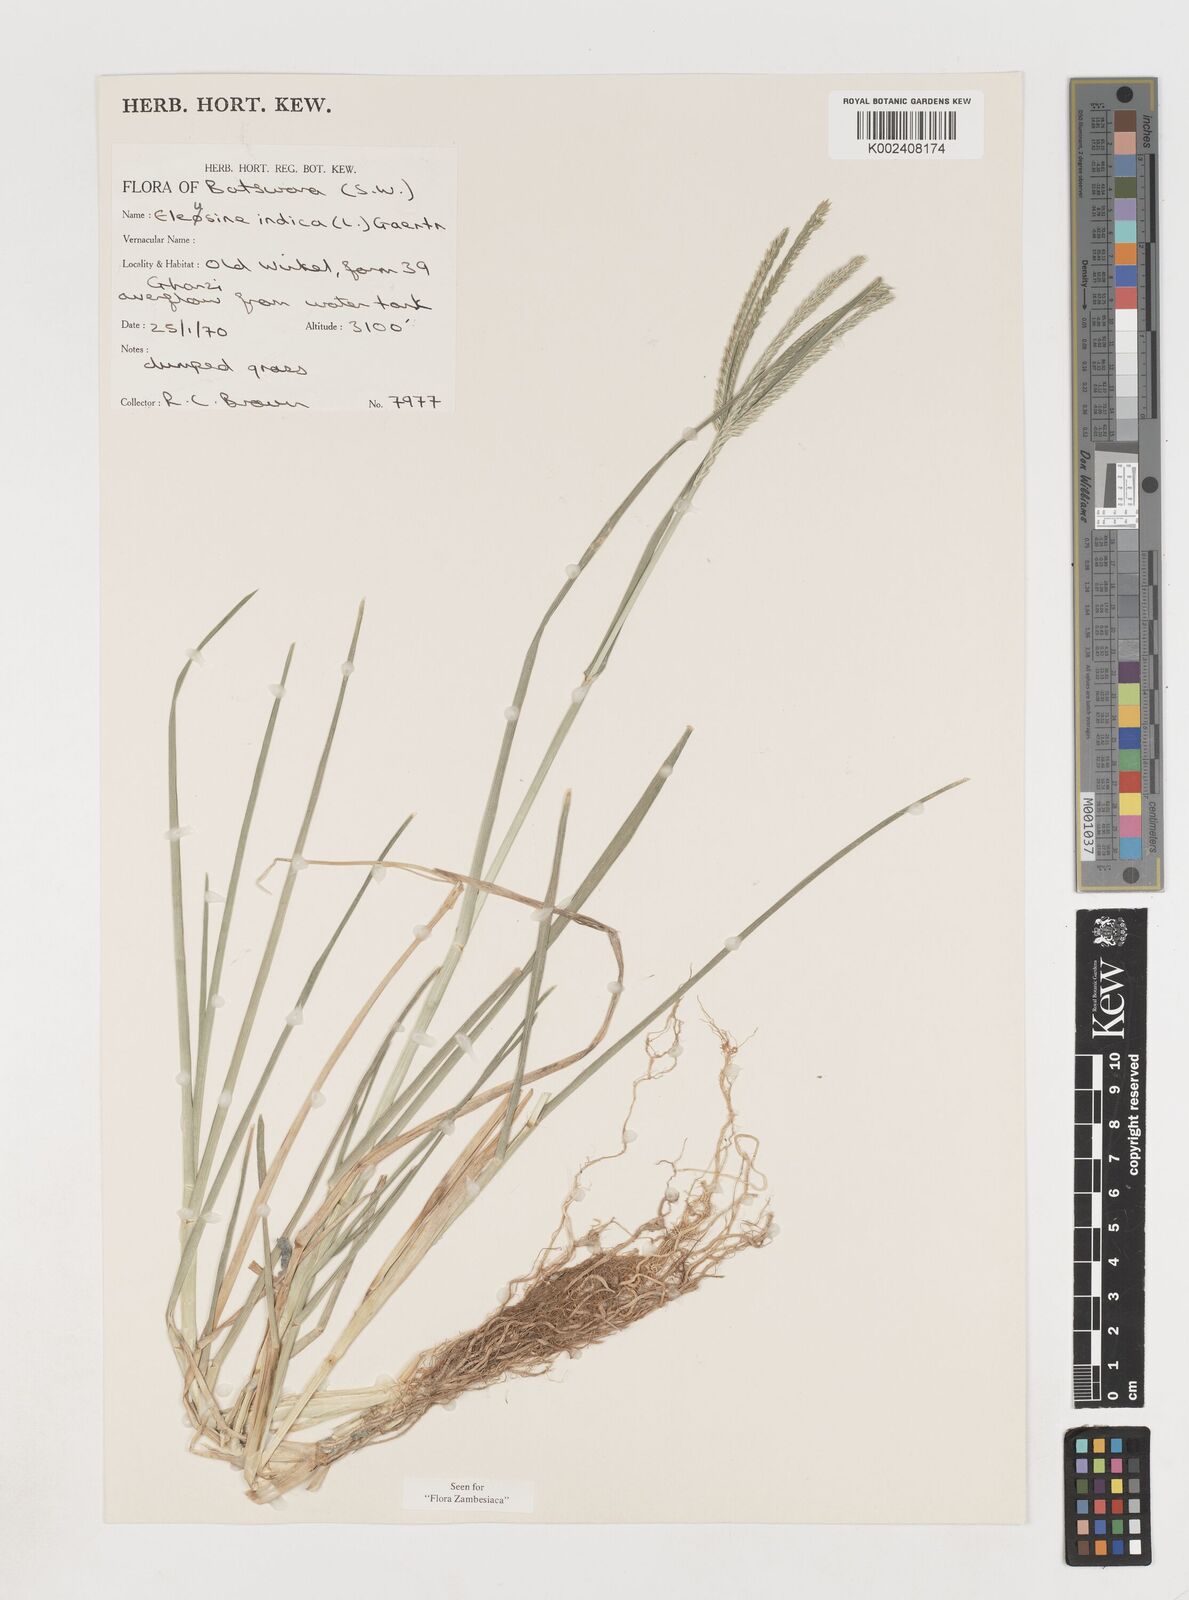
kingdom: Plantae
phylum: Tracheophyta
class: Liliopsida
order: Poales
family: Poaceae
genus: Eleusine
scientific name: Eleusine africana
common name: Wild african finger millet
